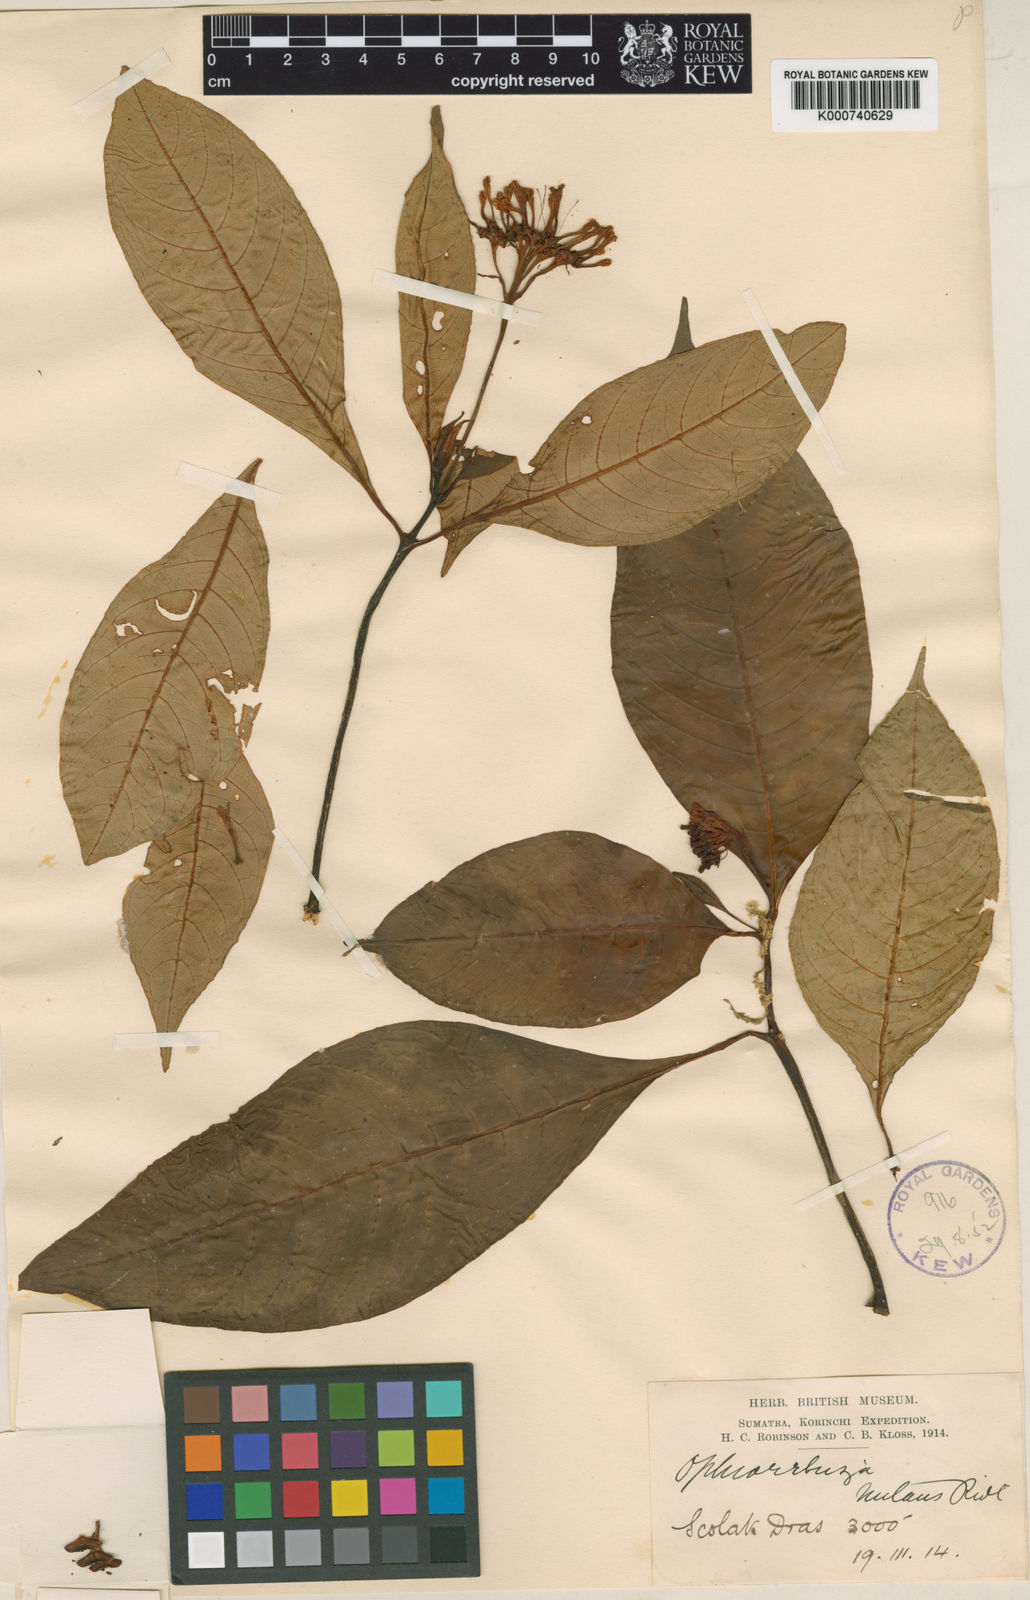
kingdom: Plantae
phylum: Tracheophyta
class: Magnoliopsida
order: Gentianales
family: Rubiaceae
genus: Ophiorrhiza
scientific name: Ophiorrhiza nutans
